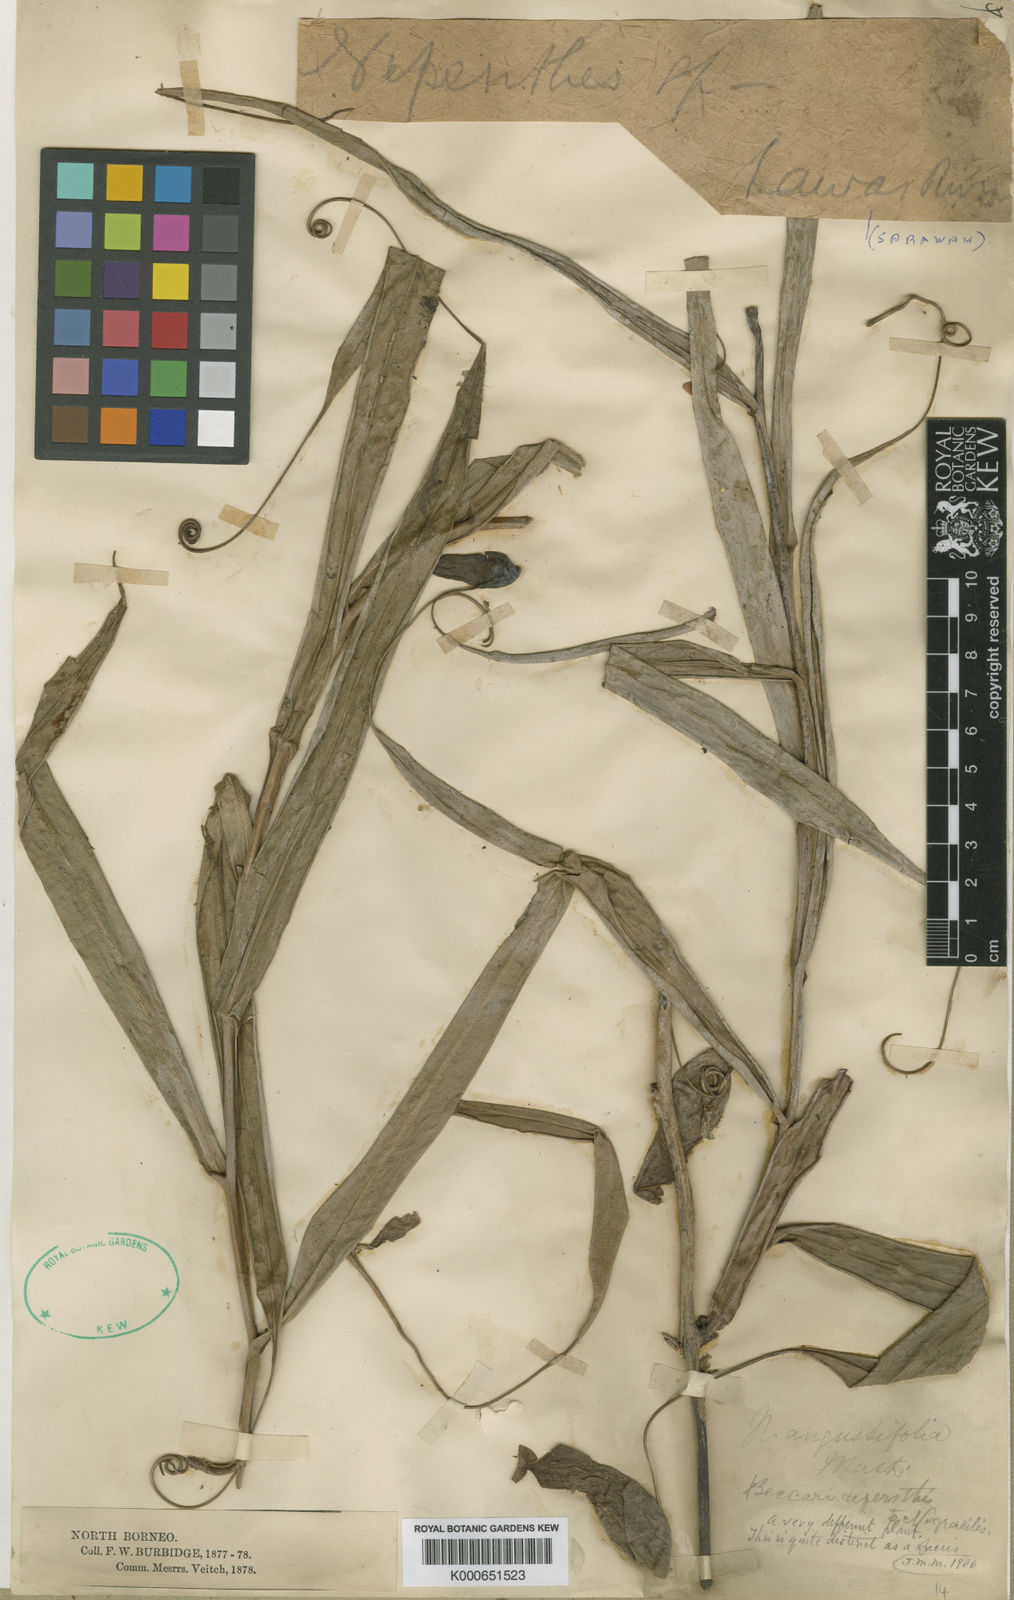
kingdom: Plantae
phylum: Tracheophyta
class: Magnoliopsida
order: Caryophyllales
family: Nepenthaceae
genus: Nepenthes
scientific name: Nepenthes gracilis
